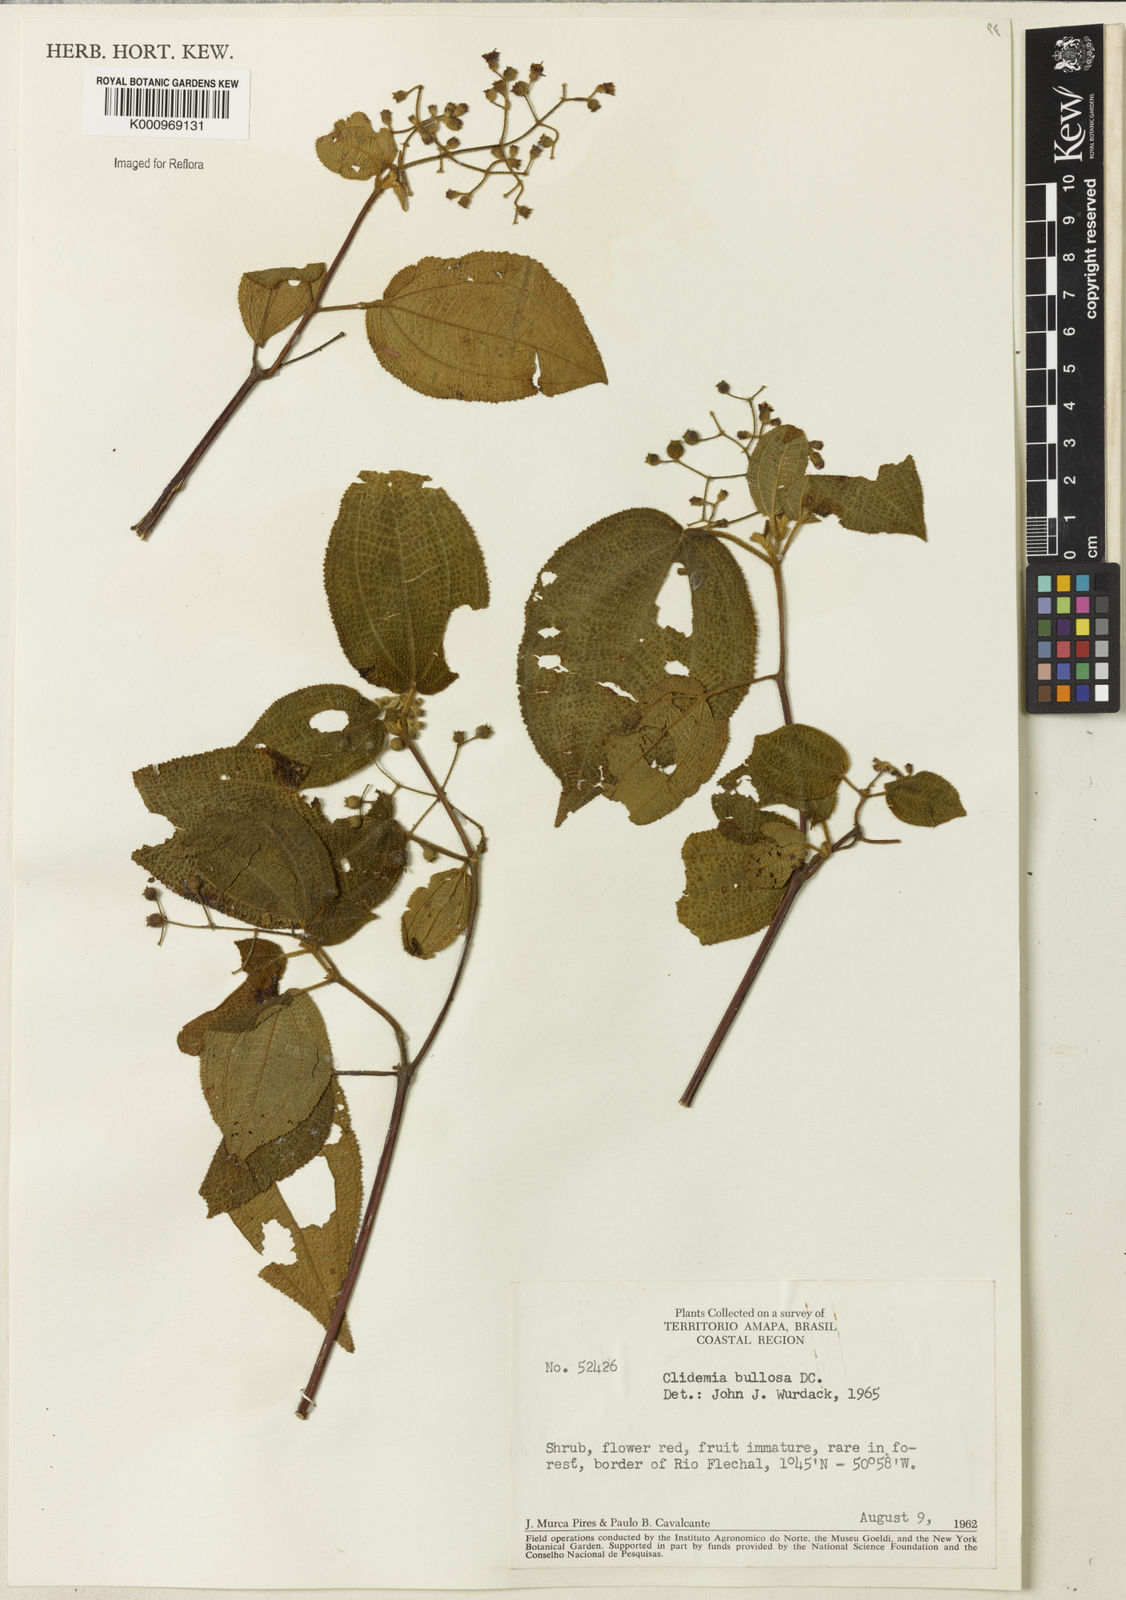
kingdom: Plantae
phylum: Tracheophyta
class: Magnoliopsida
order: Myrtales
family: Melastomataceae
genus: Miconia
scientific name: Miconia biserrata
